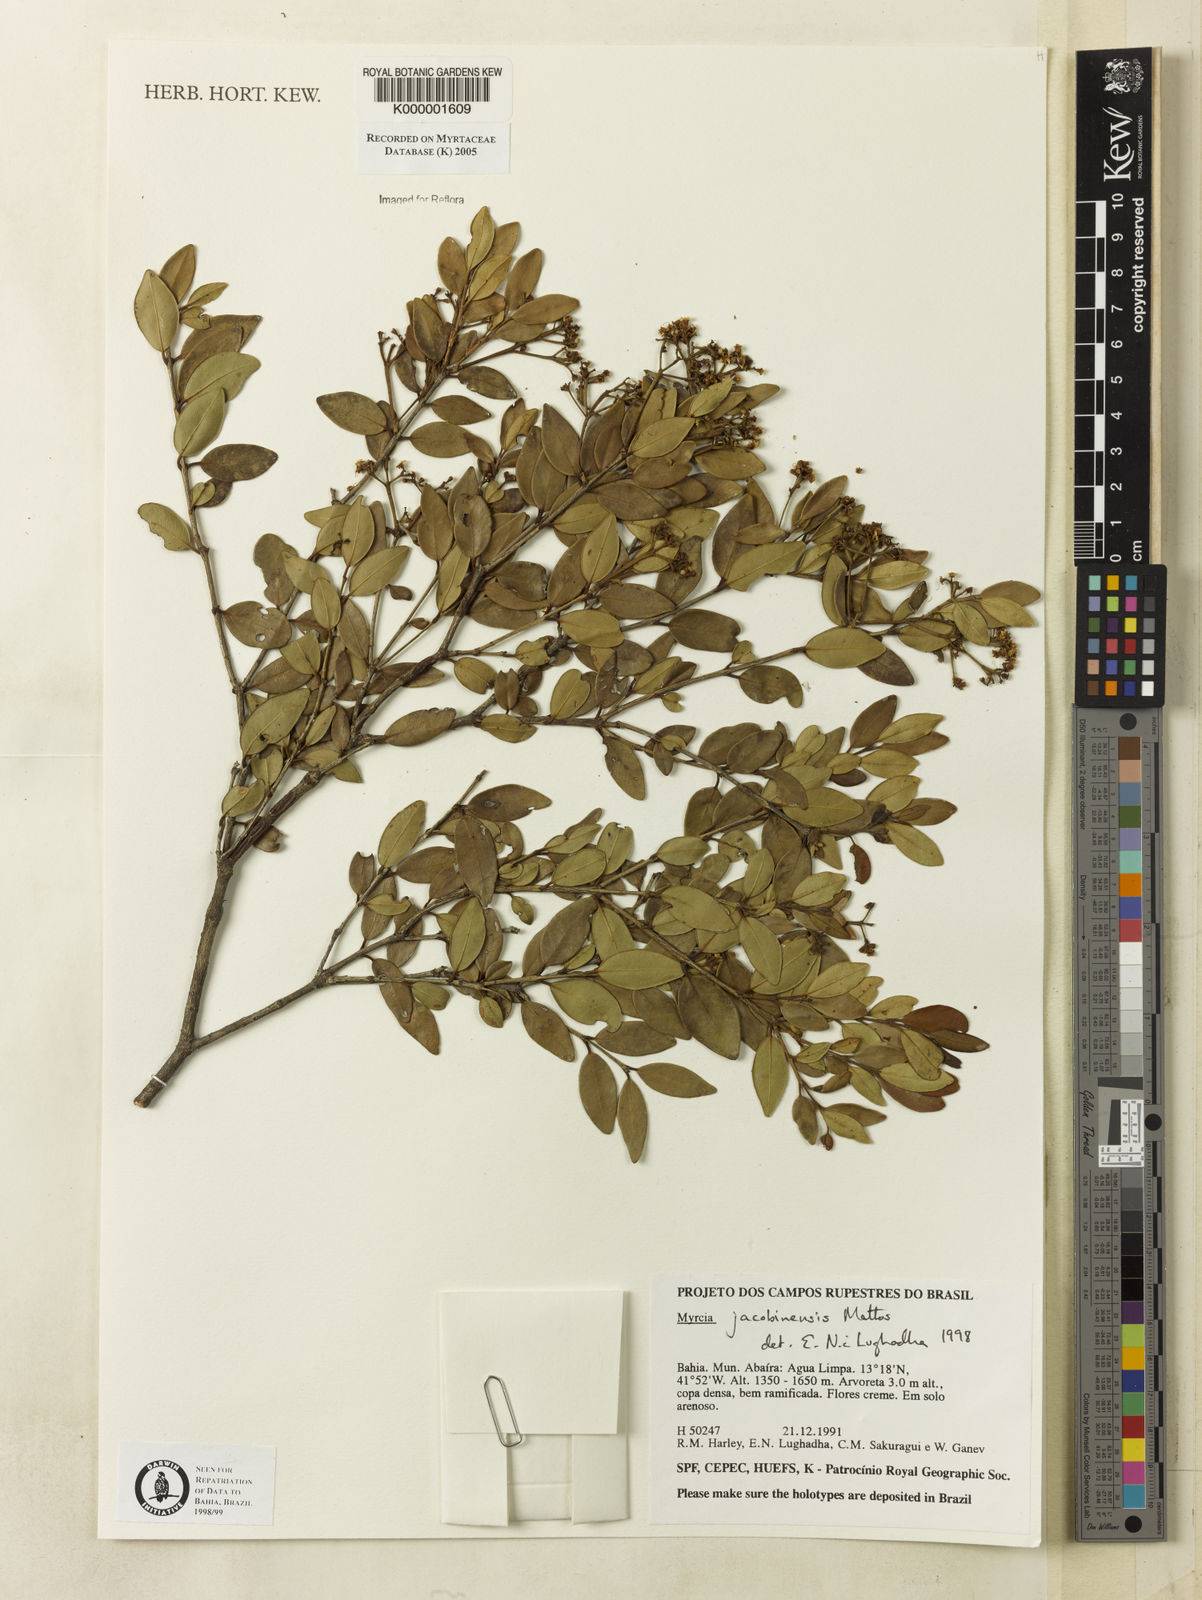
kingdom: Plantae
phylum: Tracheophyta
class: Magnoliopsida
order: Myrtales
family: Myrtaceae
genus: Myrcia
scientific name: Myrcia jacobinensis
